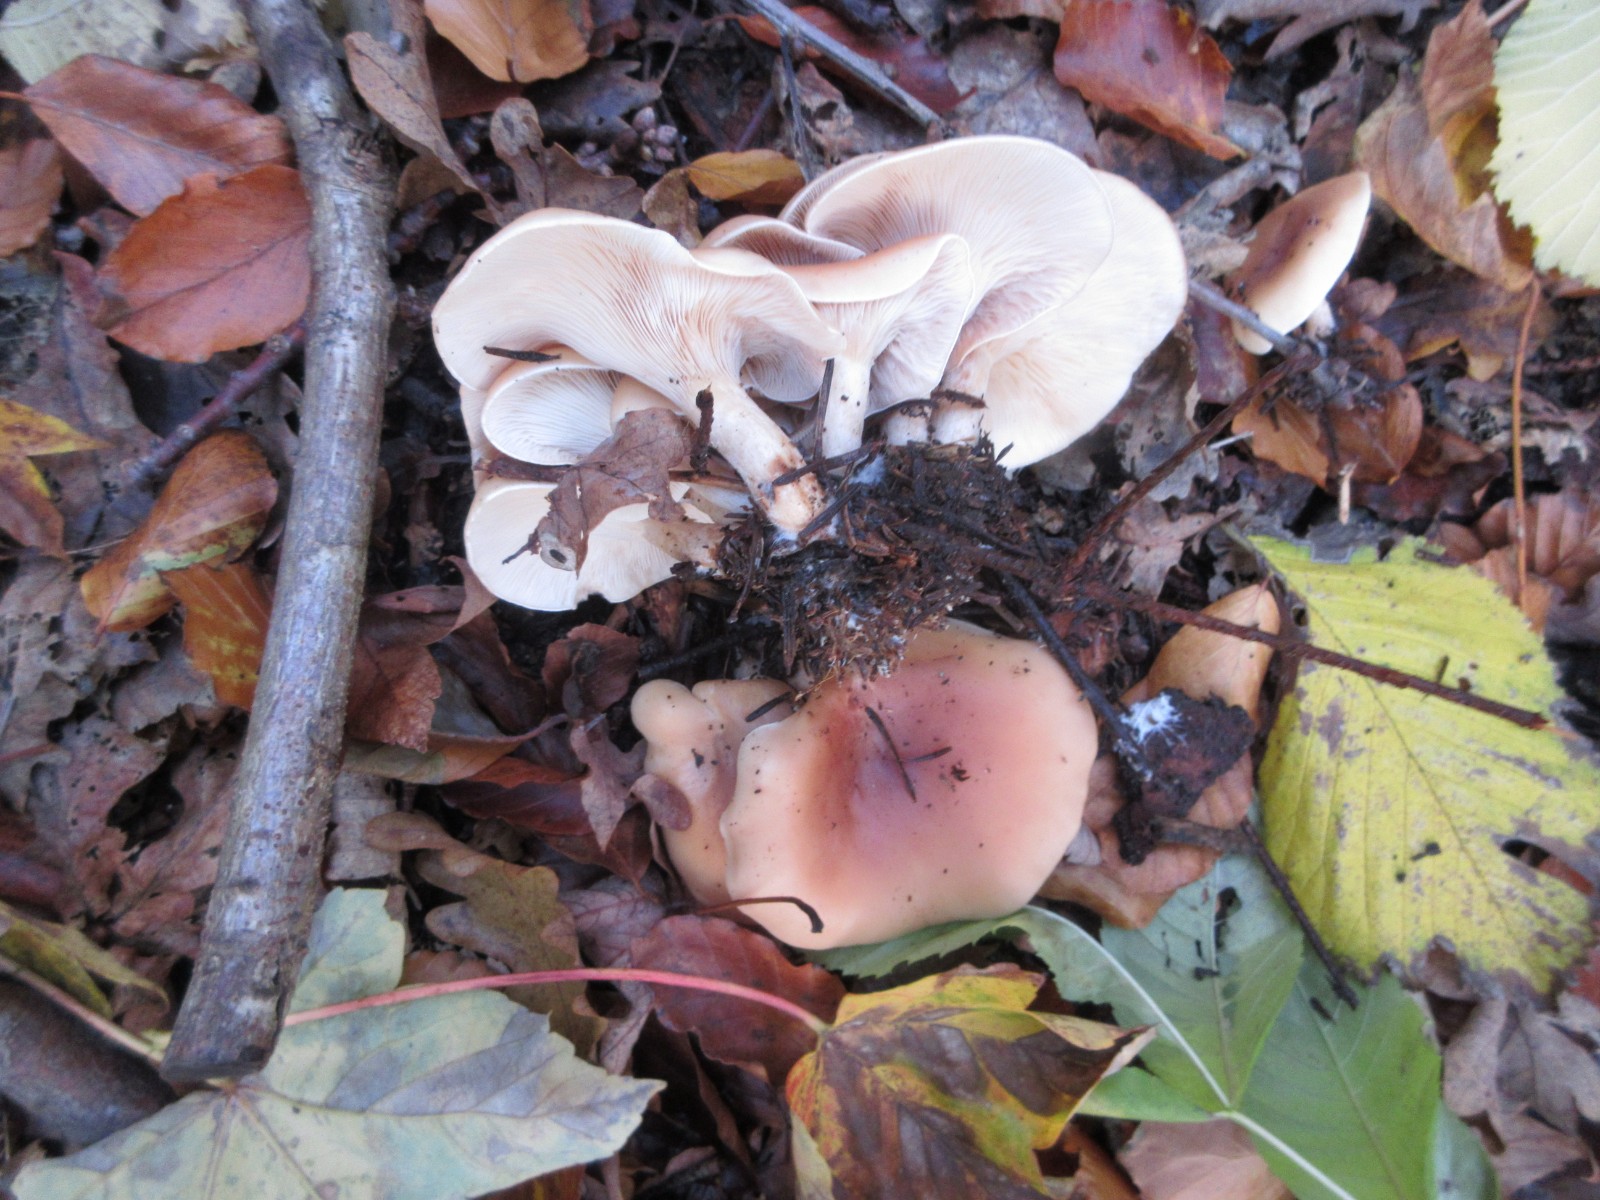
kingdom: Fungi
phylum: Basidiomycota
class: Agaricomycetes
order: Agaricales
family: Tricholomataceae
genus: Paralepista
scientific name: Paralepista flaccida
